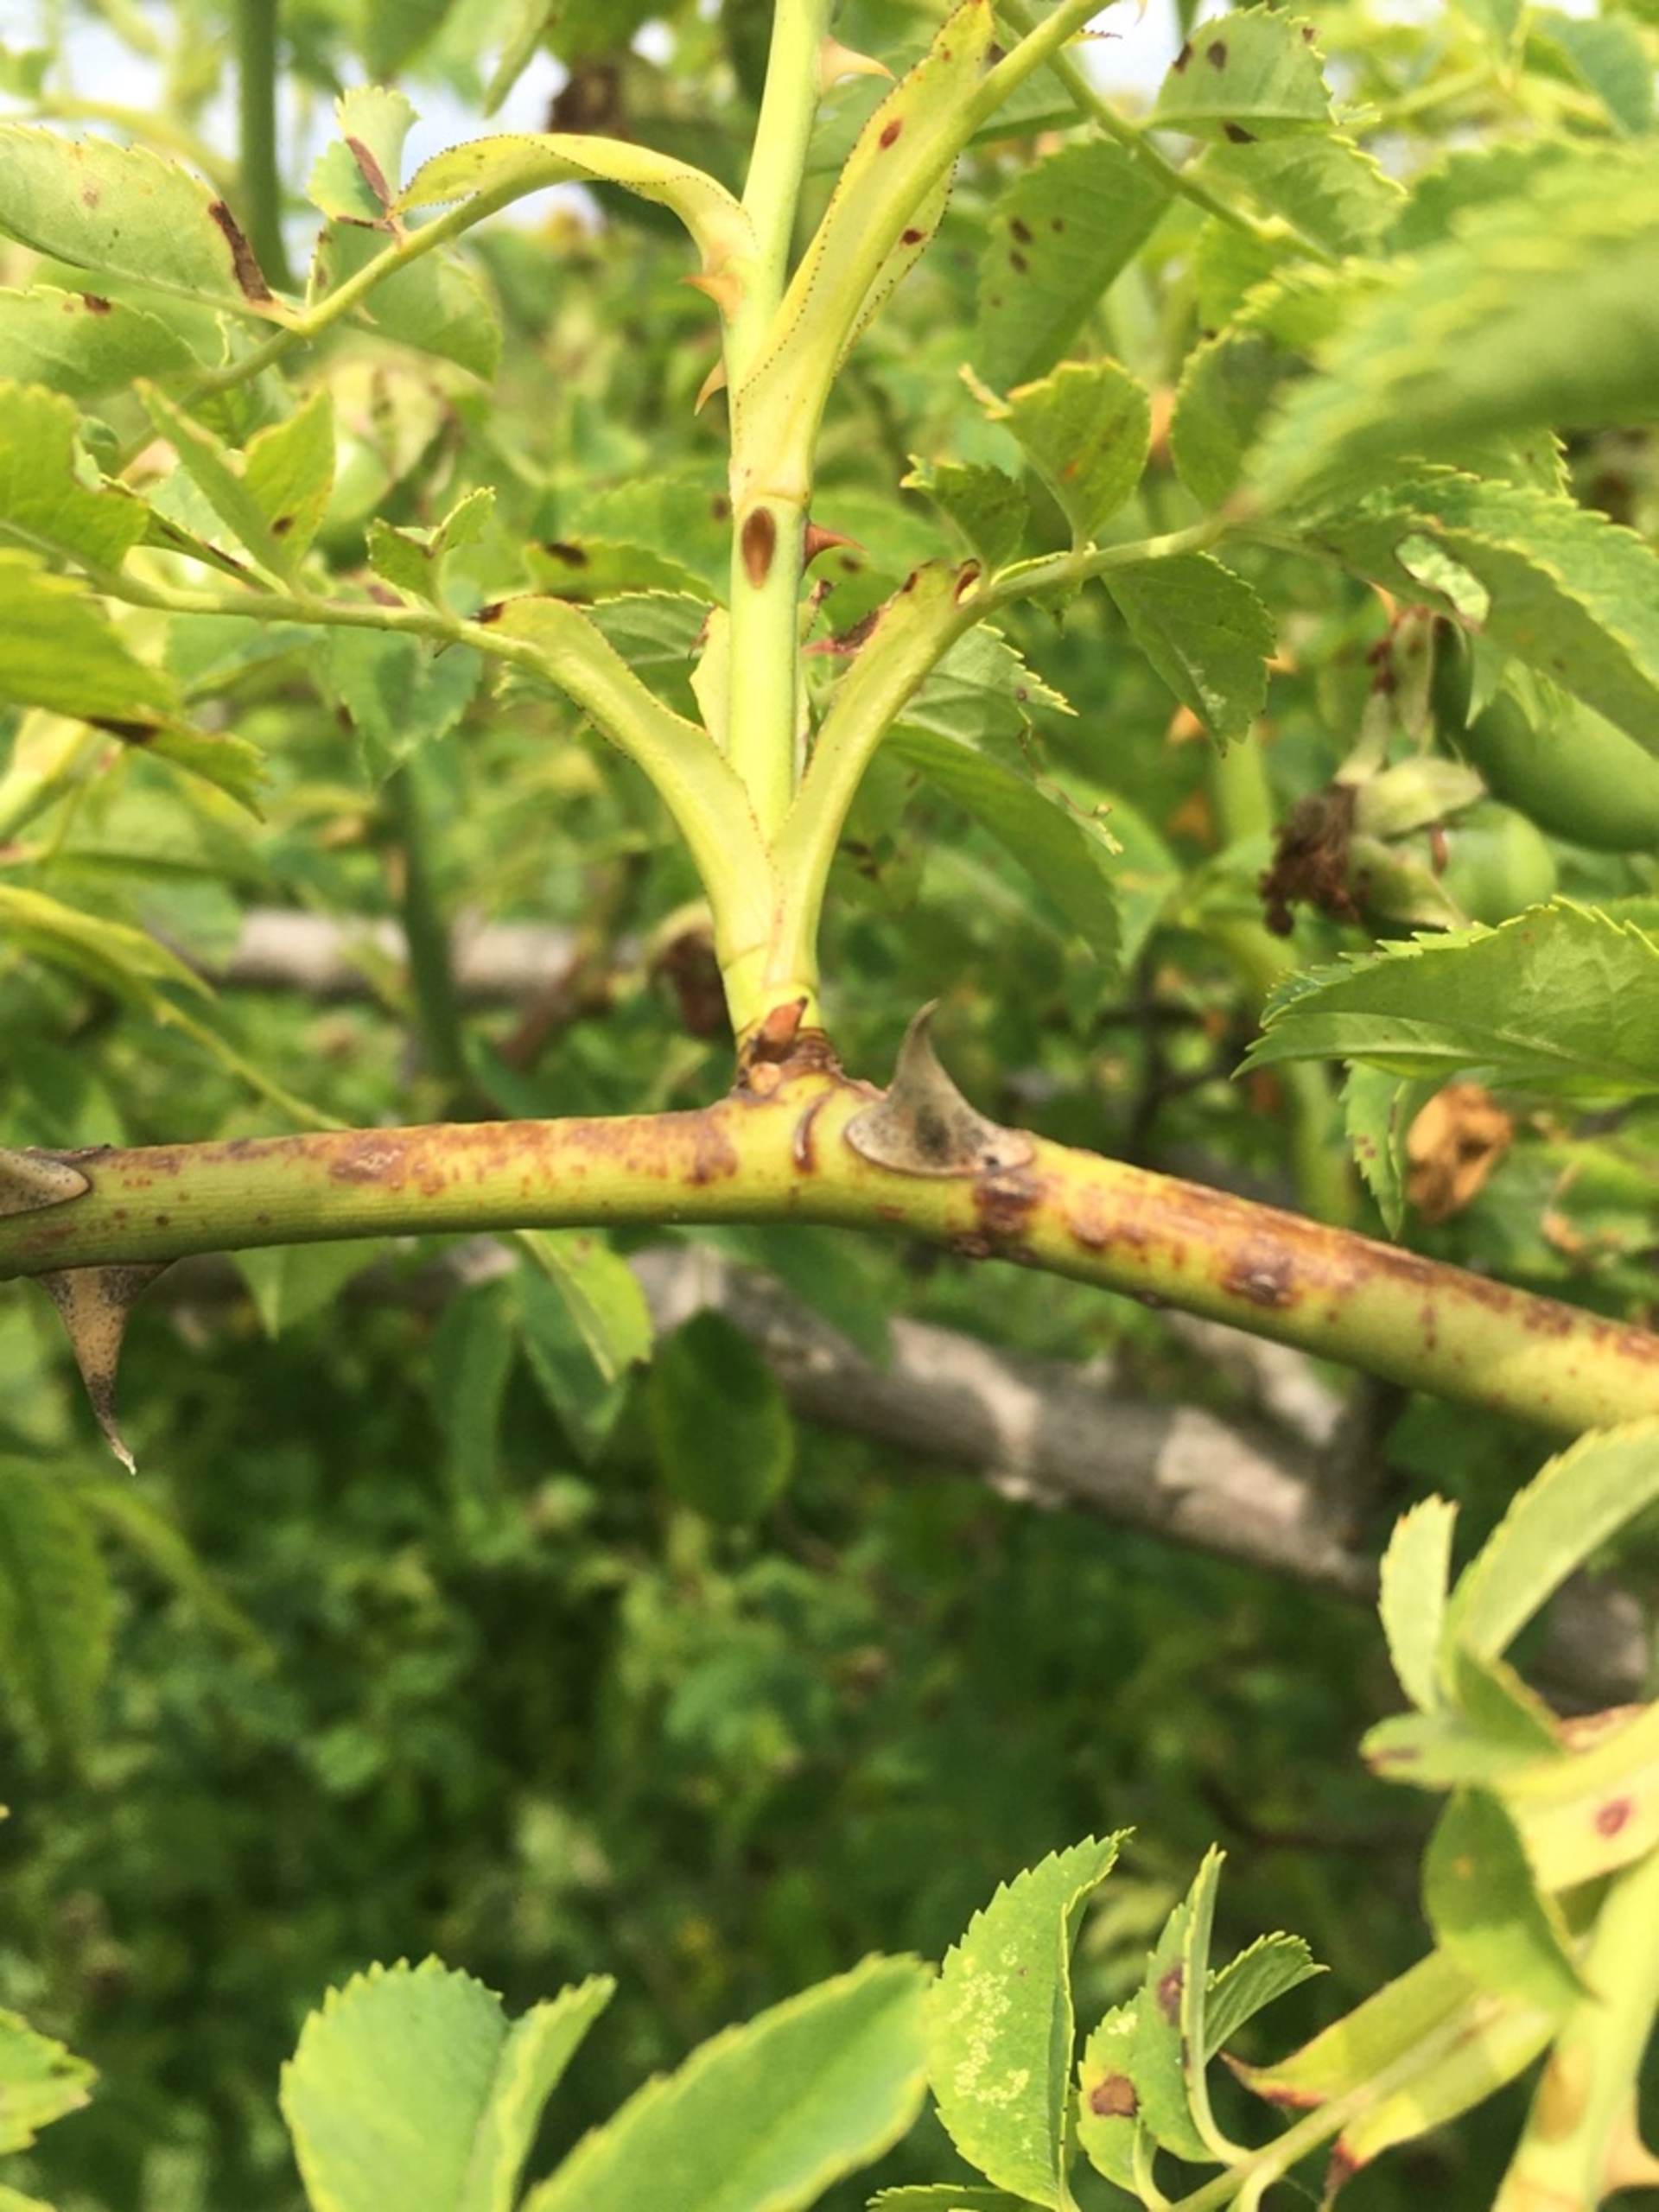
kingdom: Plantae
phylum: Tracheophyta
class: Magnoliopsida
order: Rosales
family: Rosaceae
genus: Rosa
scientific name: Rosa canina
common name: Hunde-rose
